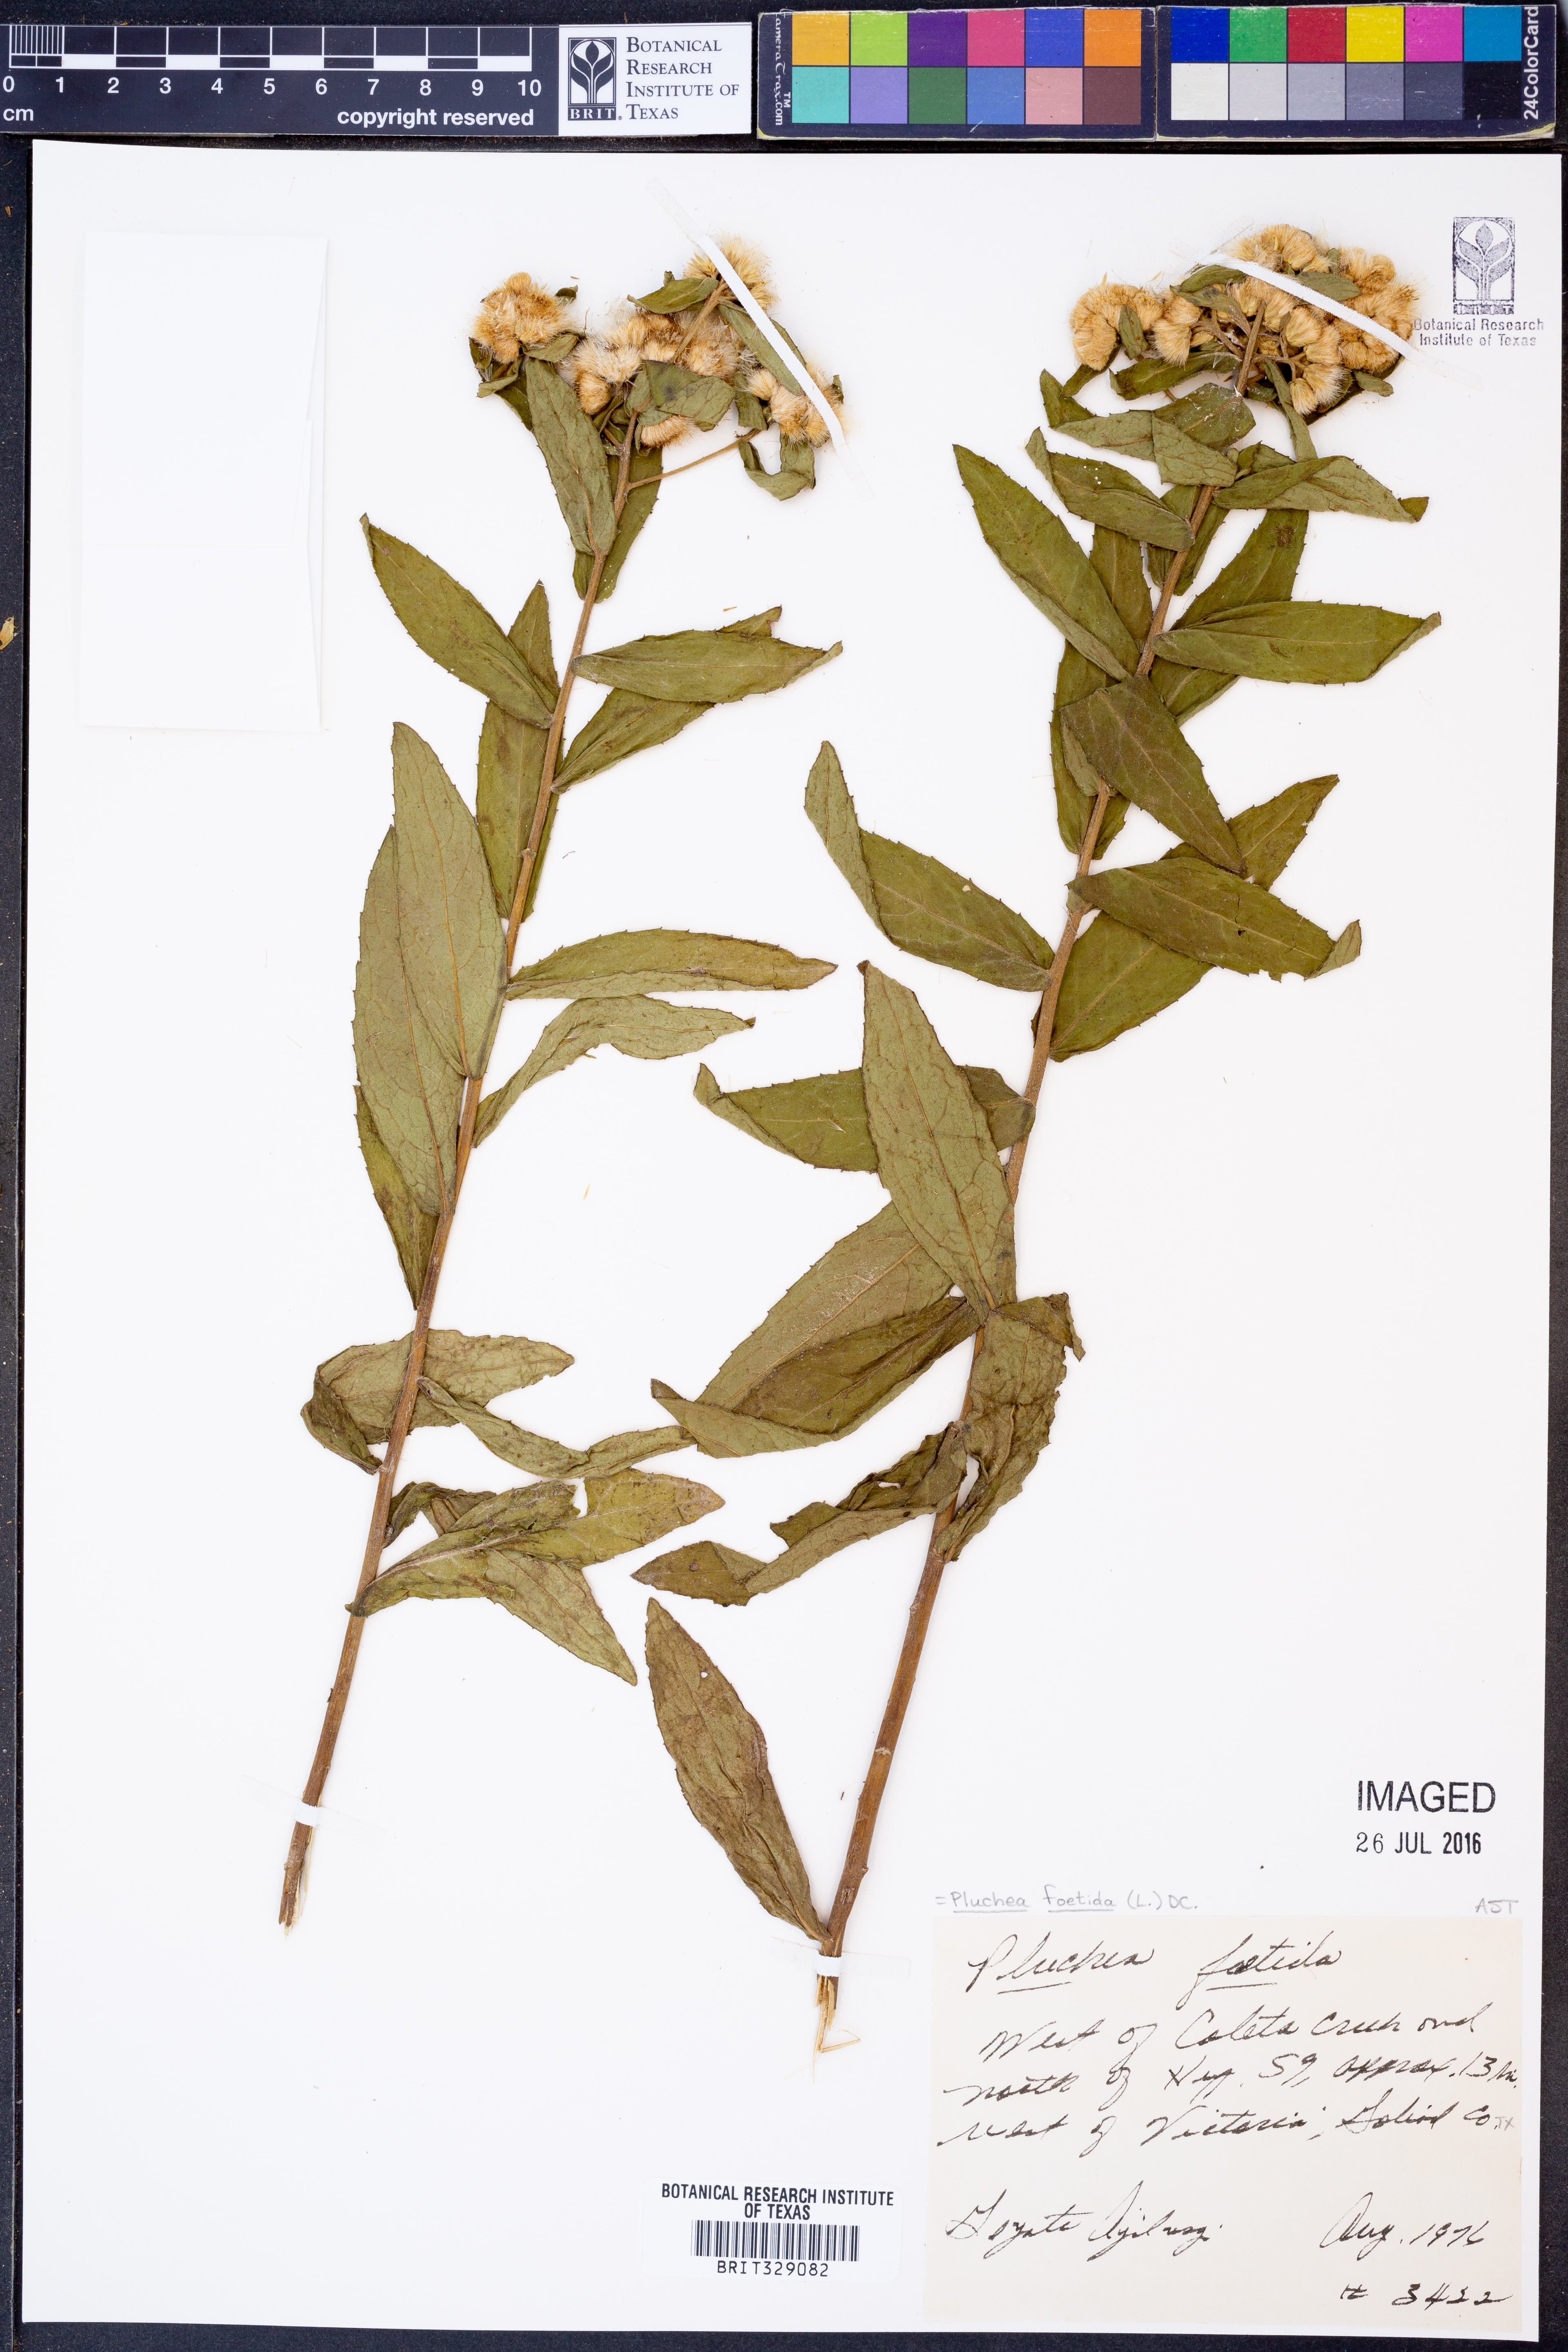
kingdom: Plantae
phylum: Tracheophyta
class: Magnoliopsida
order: Asterales
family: Asteraceae
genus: Pluchea
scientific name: Pluchea foetida
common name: Stinking camphorweed
